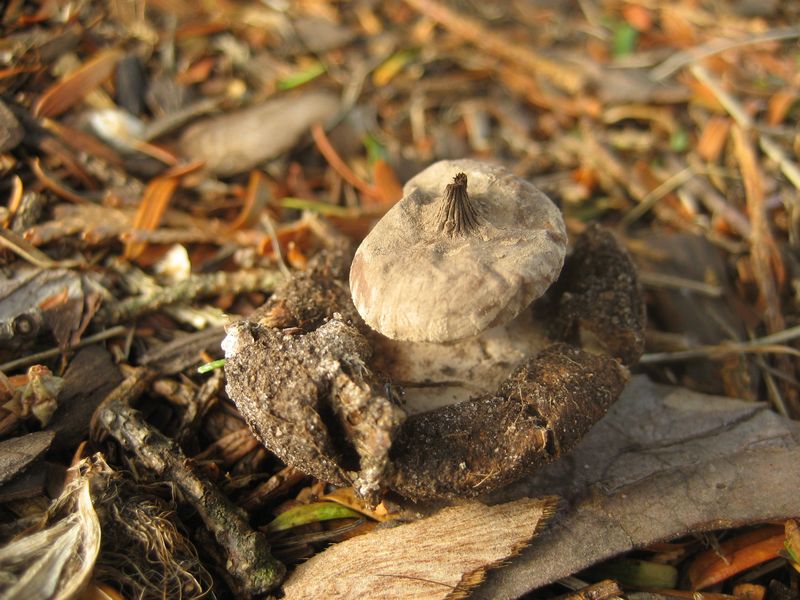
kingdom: Fungi
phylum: Basidiomycota
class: Agaricomycetes
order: Geastrales
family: Geastraceae
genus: Geastrum
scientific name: Geastrum striatum
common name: krave-stjernebold
